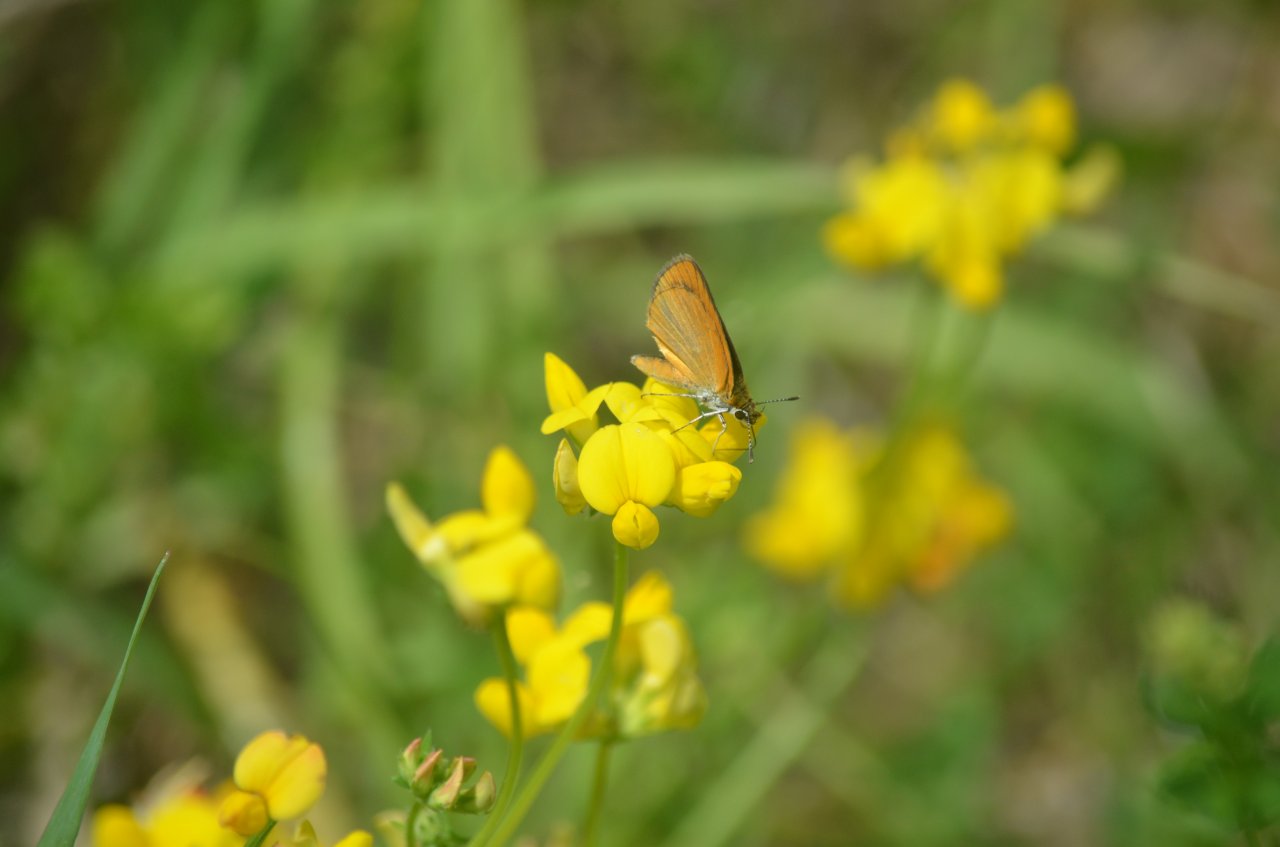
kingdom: Animalia
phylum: Arthropoda
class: Insecta
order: Lepidoptera
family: Hesperiidae
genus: Ancyloxypha
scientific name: Ancyloxypha numitor
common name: Least Skipper
